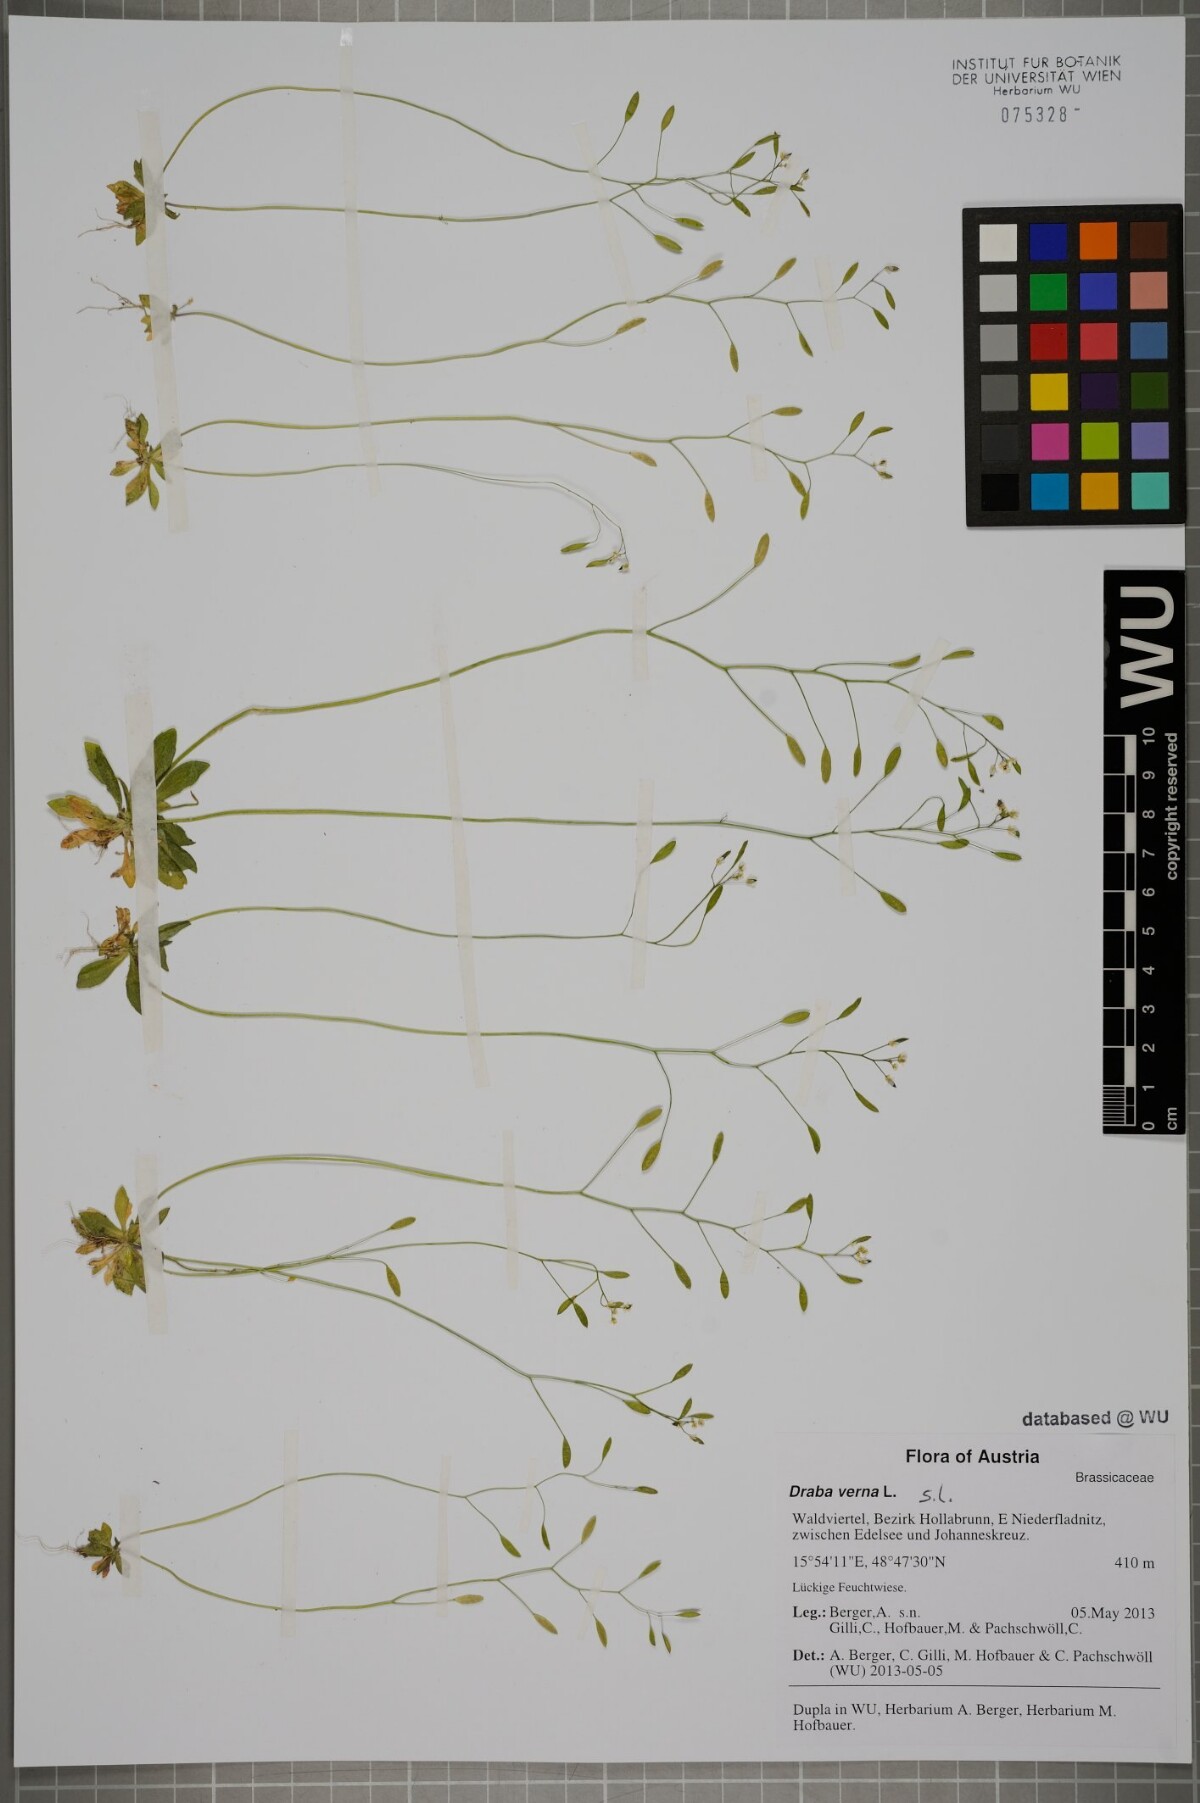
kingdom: Plantae
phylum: Tracheophyta
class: Magnoliopsida
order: Brassicales
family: Brassicaceae
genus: Draba
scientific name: Draba verna
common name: Spring draba
